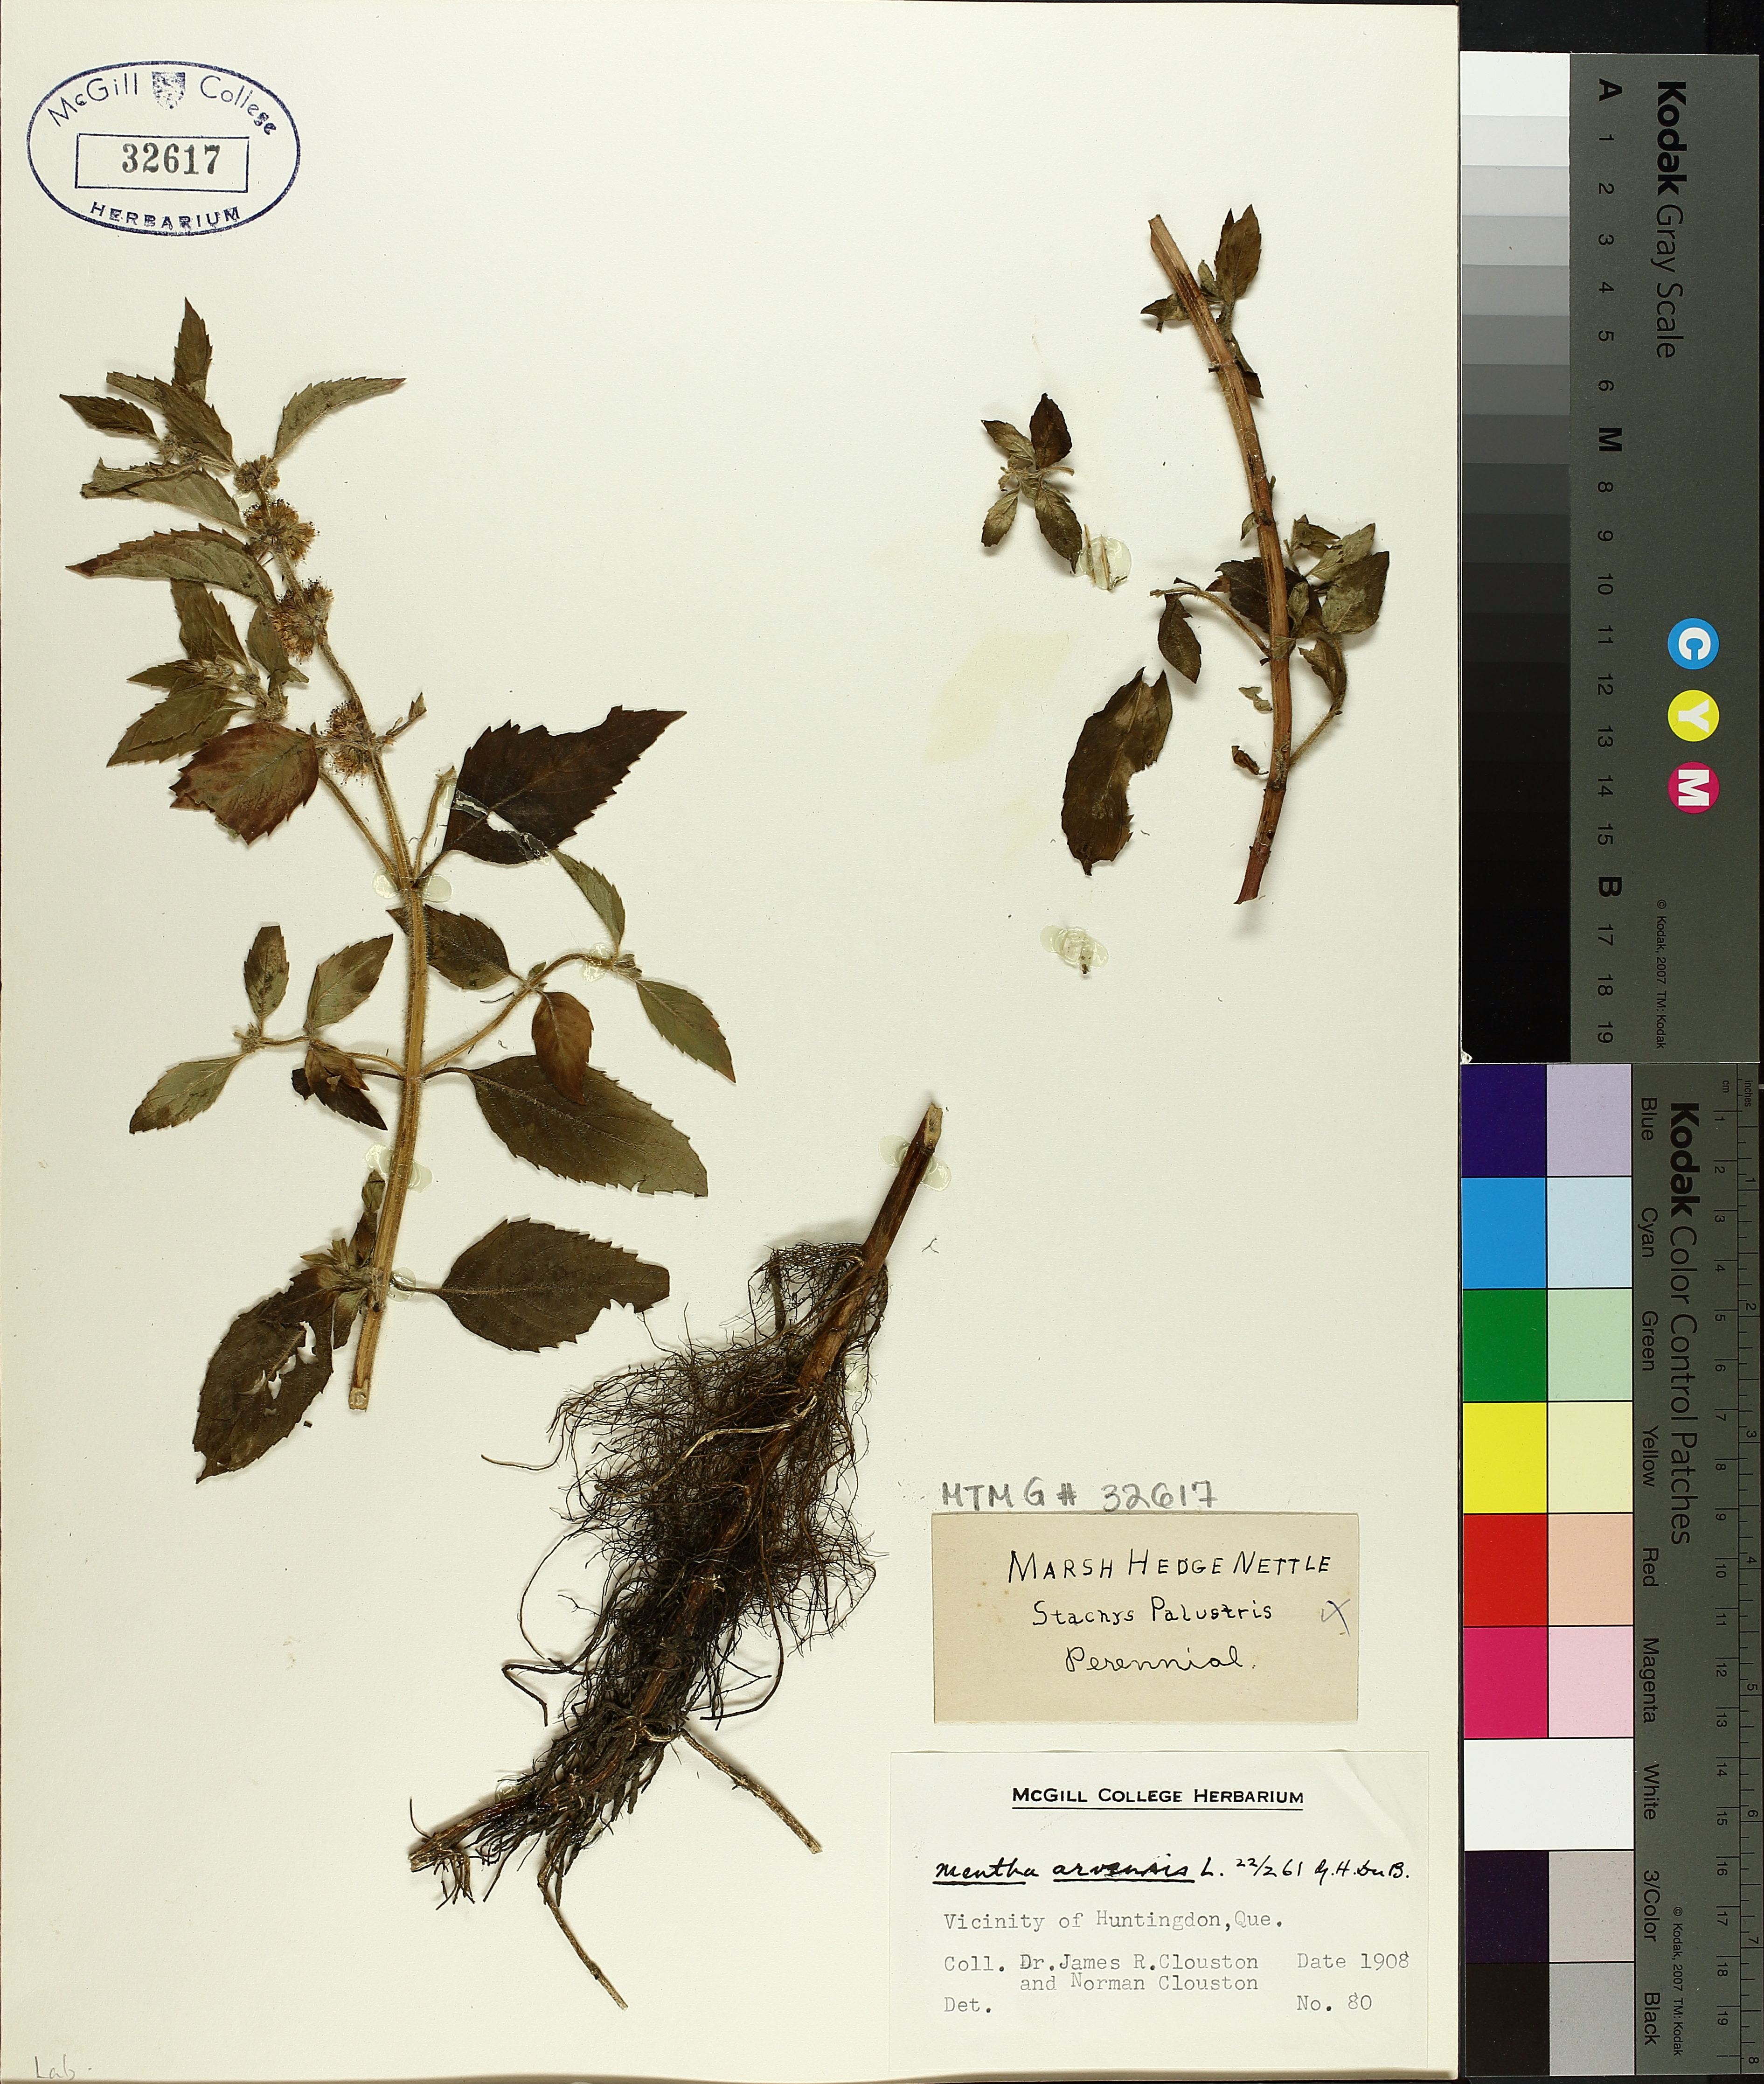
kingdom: Plantae
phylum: Tracheophyta
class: Magnoliopsida
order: Lamiales
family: Lamiaceae
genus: Mentha
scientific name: Mentha arvensis
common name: Corn mint
